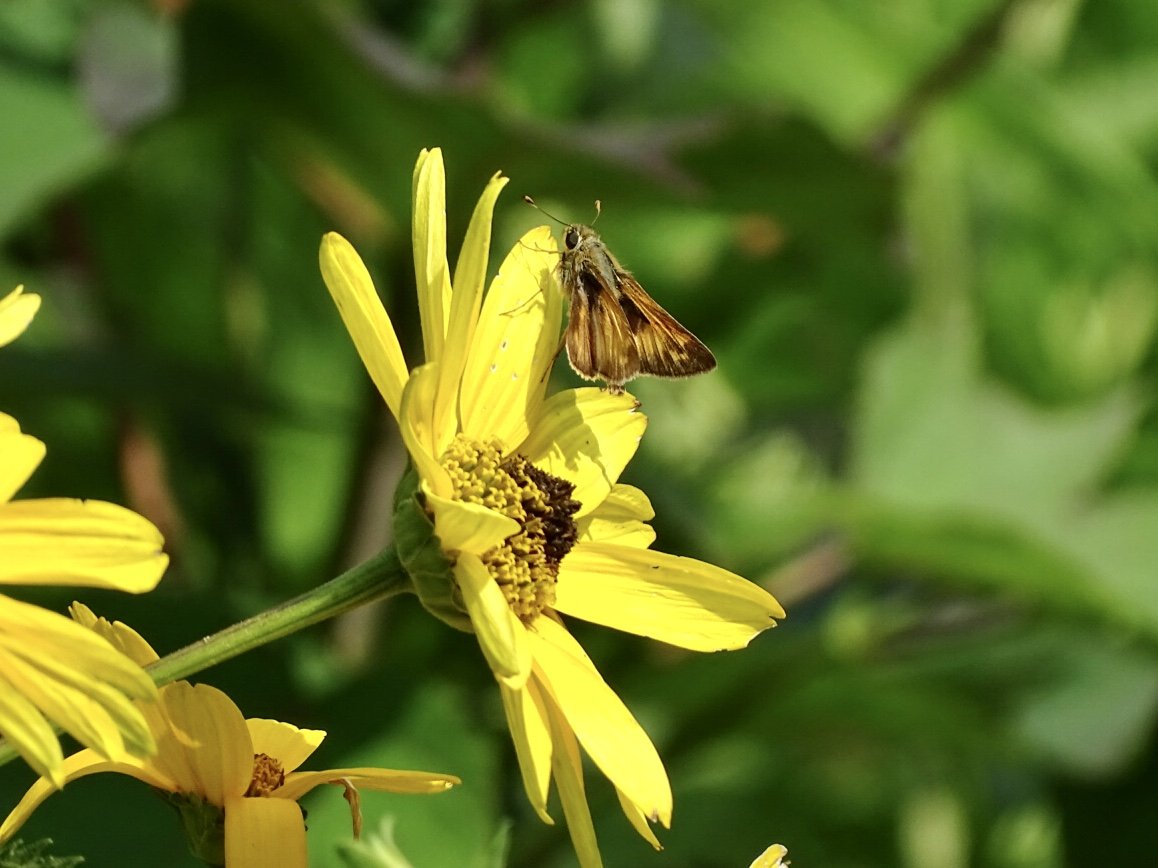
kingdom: Animalia
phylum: Arthropoda
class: Insecta
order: Lepidoptera
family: Hesperiidae
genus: Atalopedes
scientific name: Atalopedes campestris
